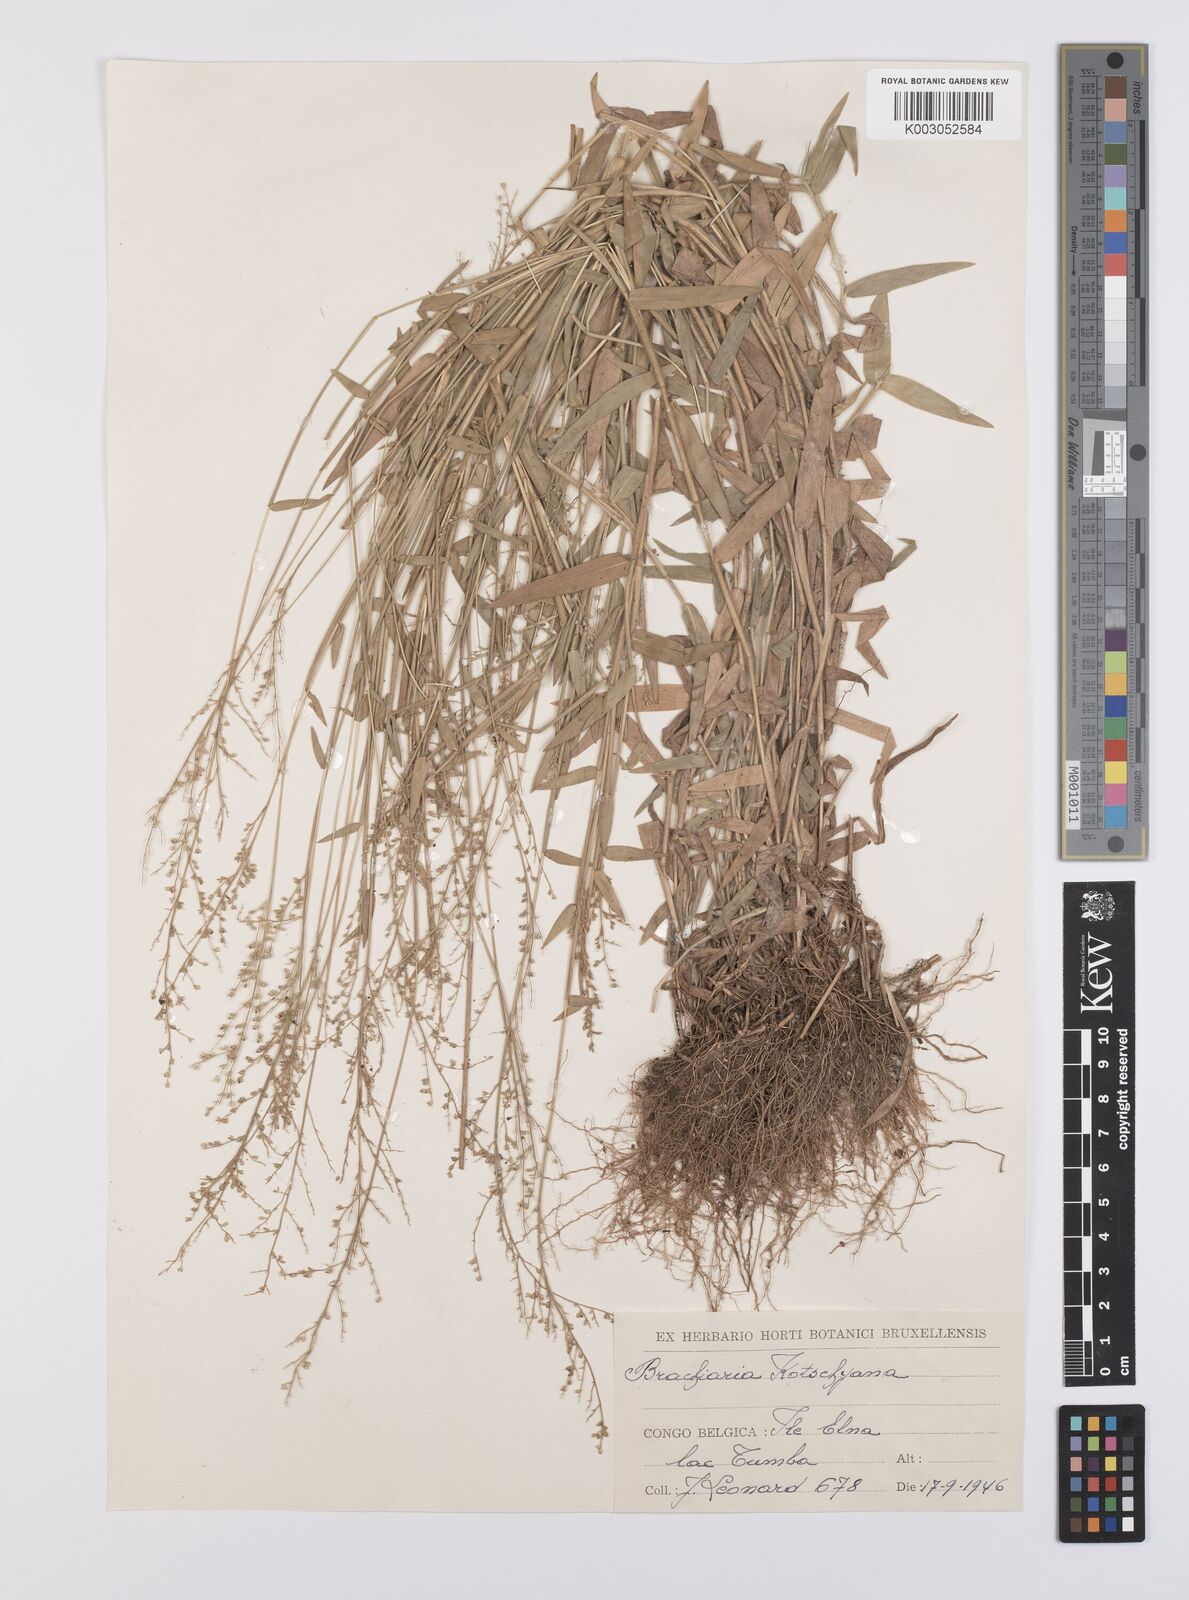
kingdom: Plantae
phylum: Tracheophyta
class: Liliopsida
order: Poales
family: Poaceae
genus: Urochloa
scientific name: Urochloa comata
